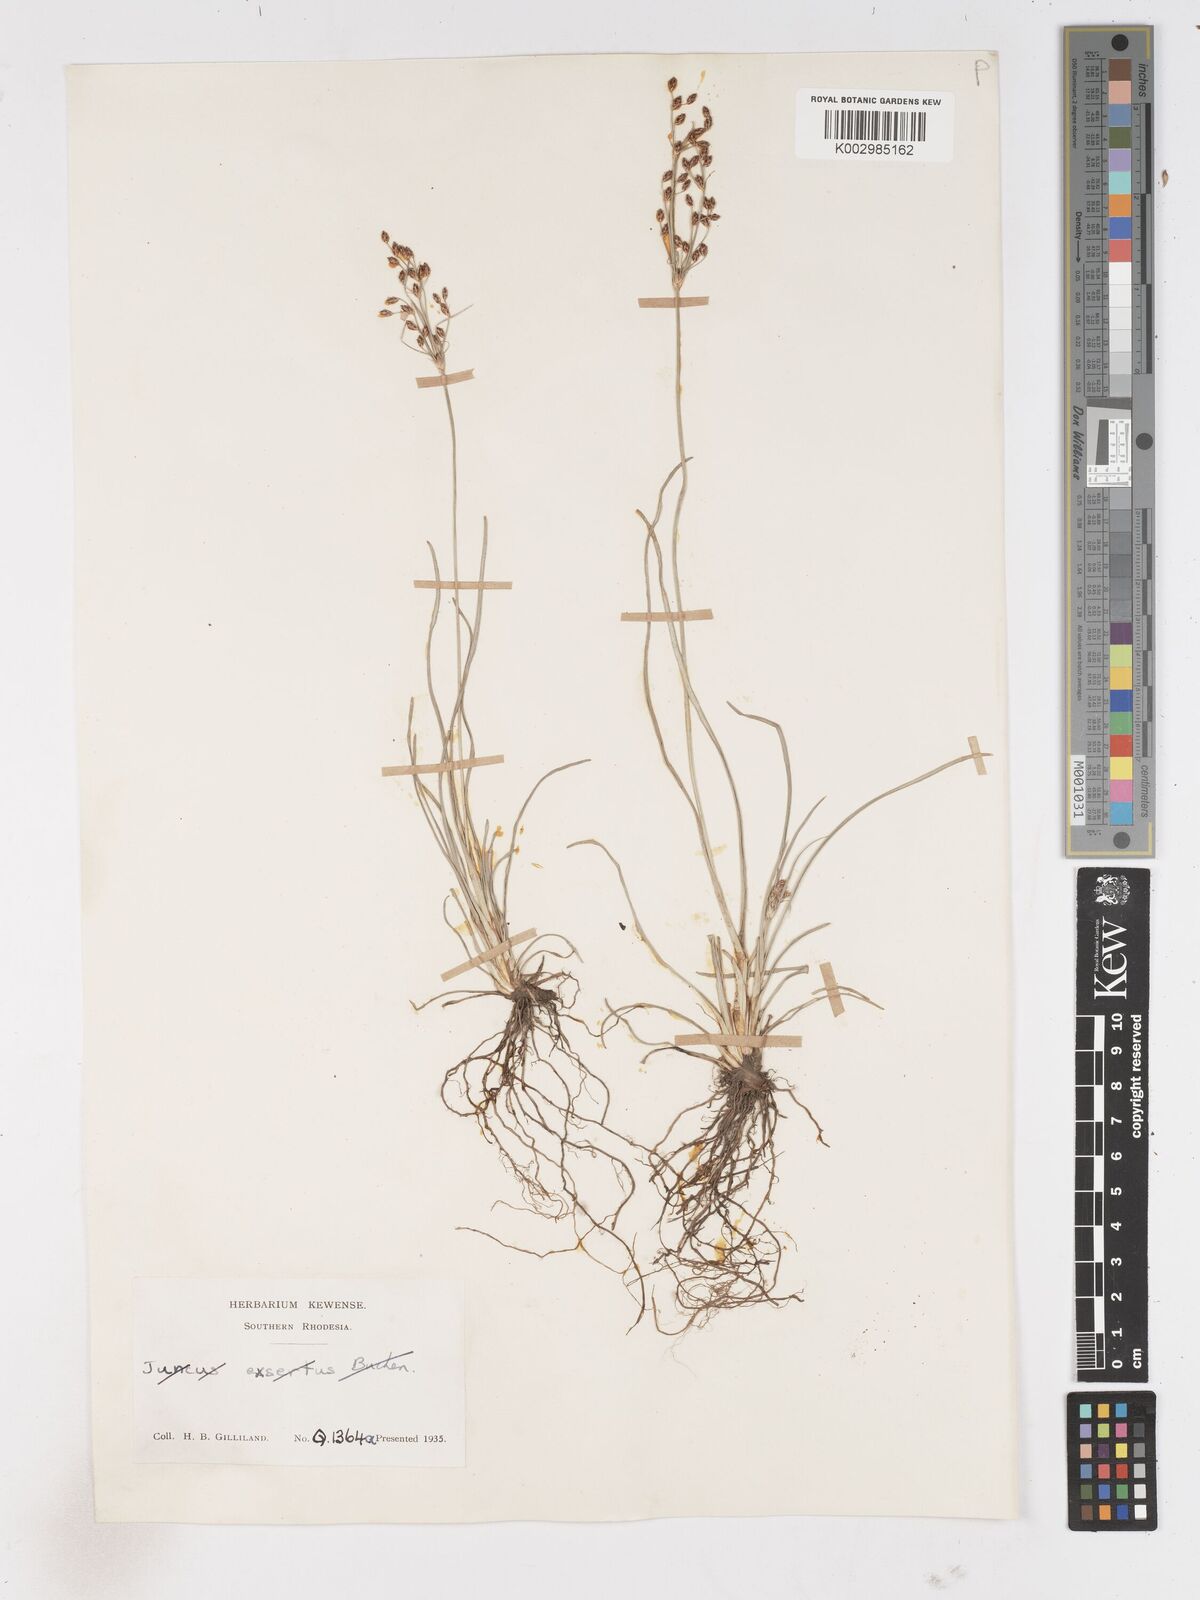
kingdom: Plantae
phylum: Tracheophyta
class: Liliopsida
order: Poales
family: Cyperaceae
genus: Fimbristylis
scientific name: Fimbristylis dichotoma
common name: Forked fimbry
